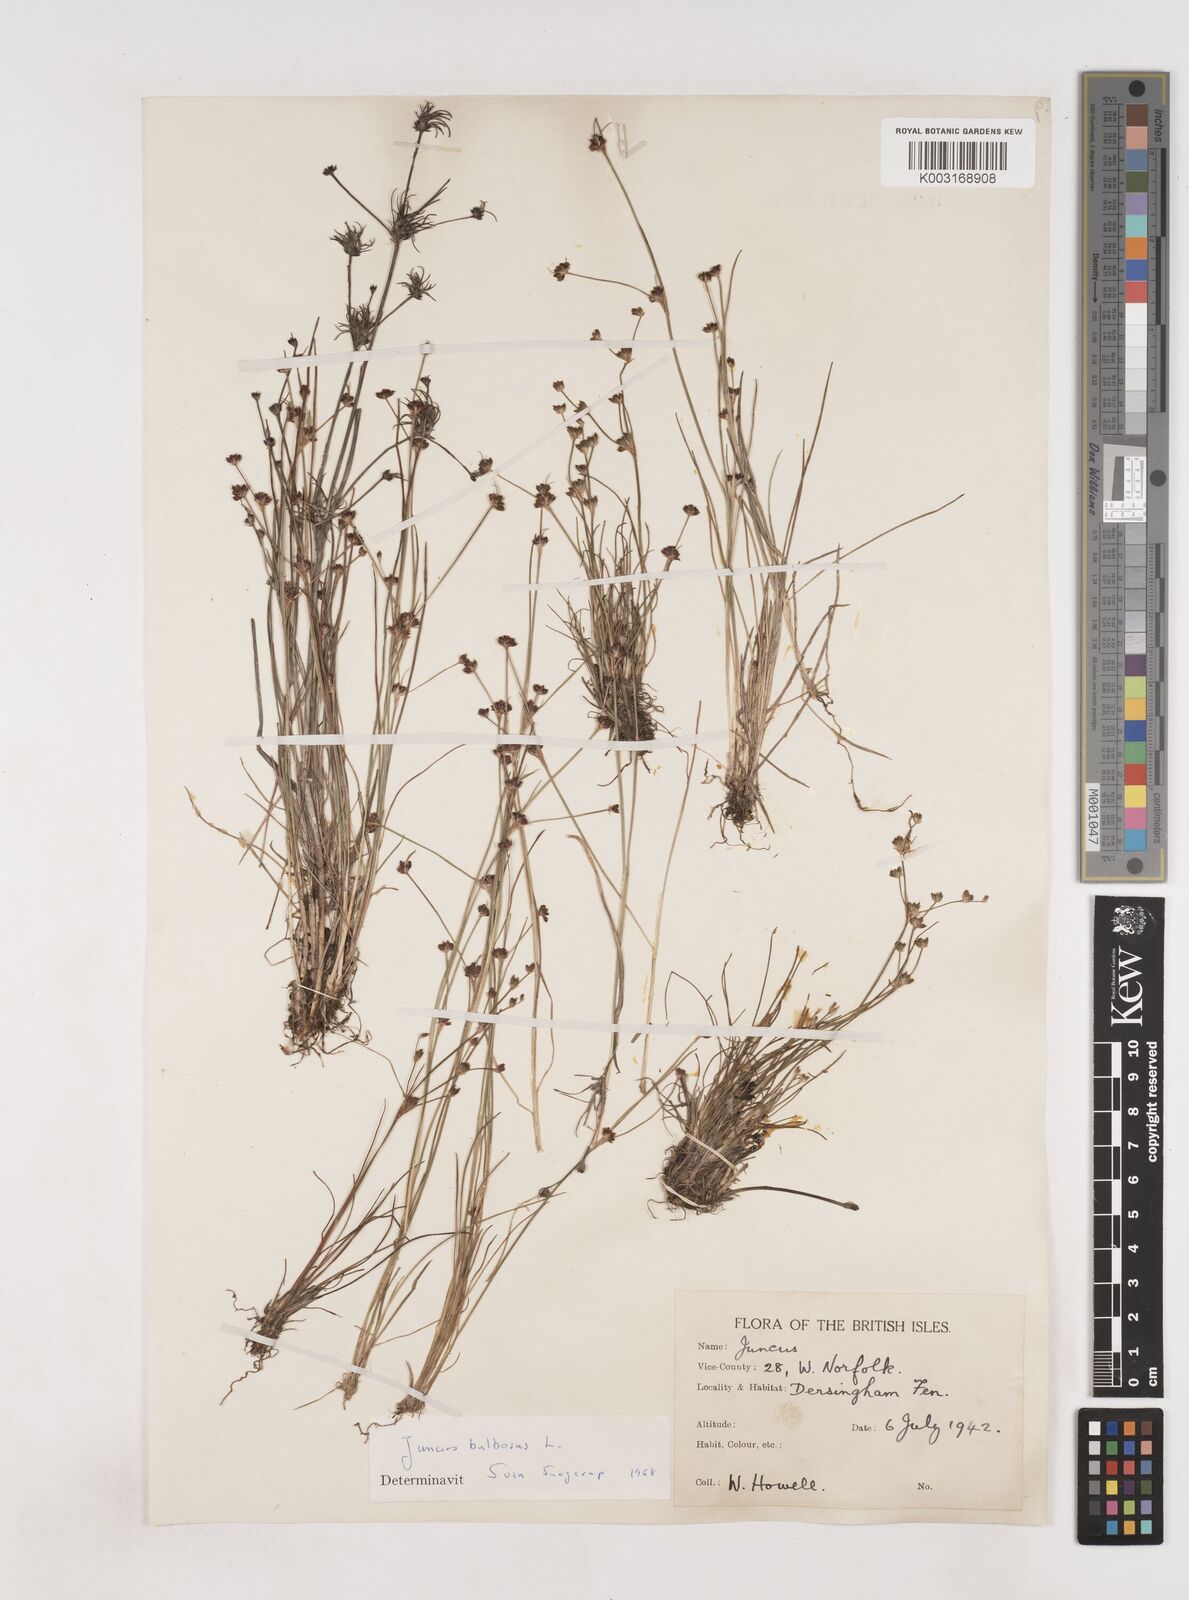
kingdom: Plantae
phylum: Tracheophyta
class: Liliopsida
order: Poales
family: Juncaceae
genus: Juncus
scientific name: Juncus bulbosus
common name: Bulbous rush
